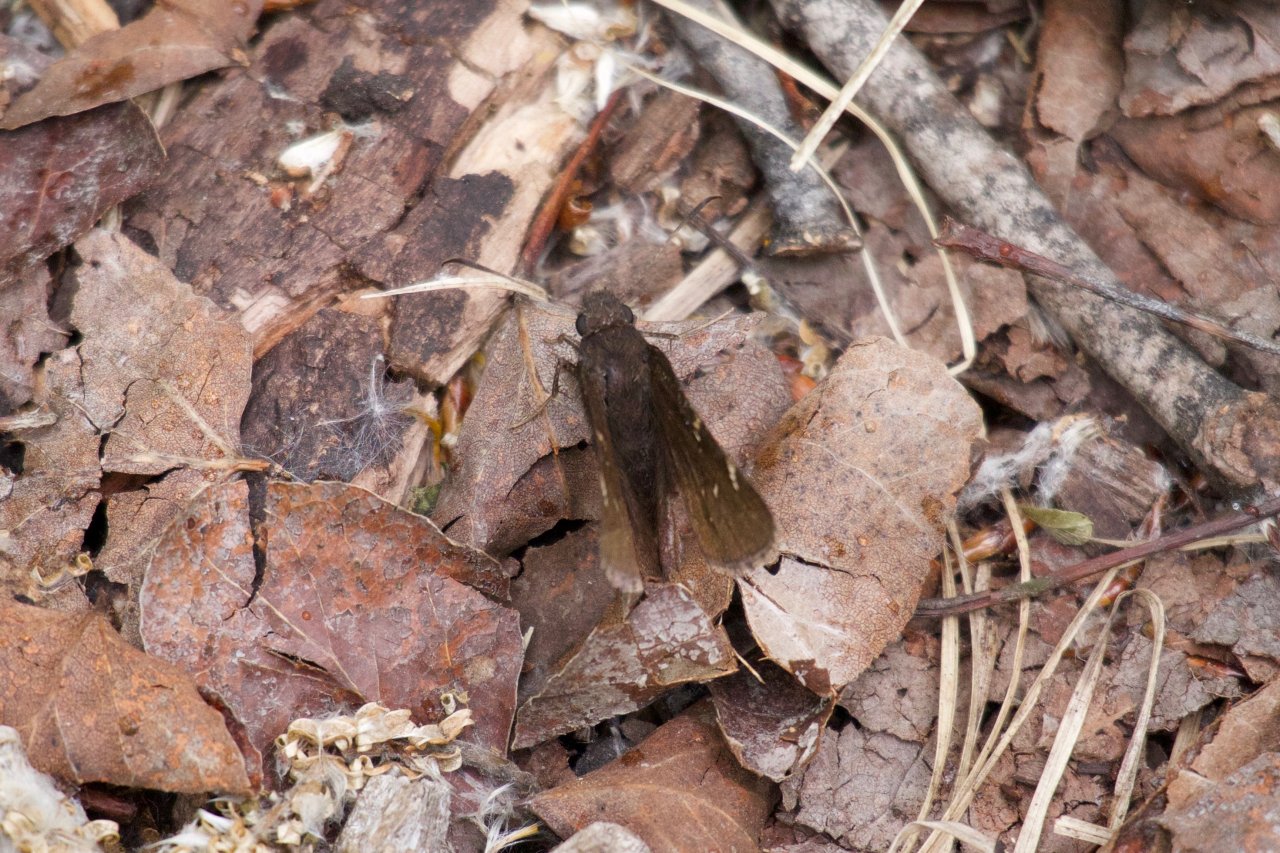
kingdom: Animalia
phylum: Arthropoda
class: Insecta
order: Lepidoptera
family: Hesperiidae
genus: Mastor
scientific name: Mastor vialis
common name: Common Roadside-Skipper
